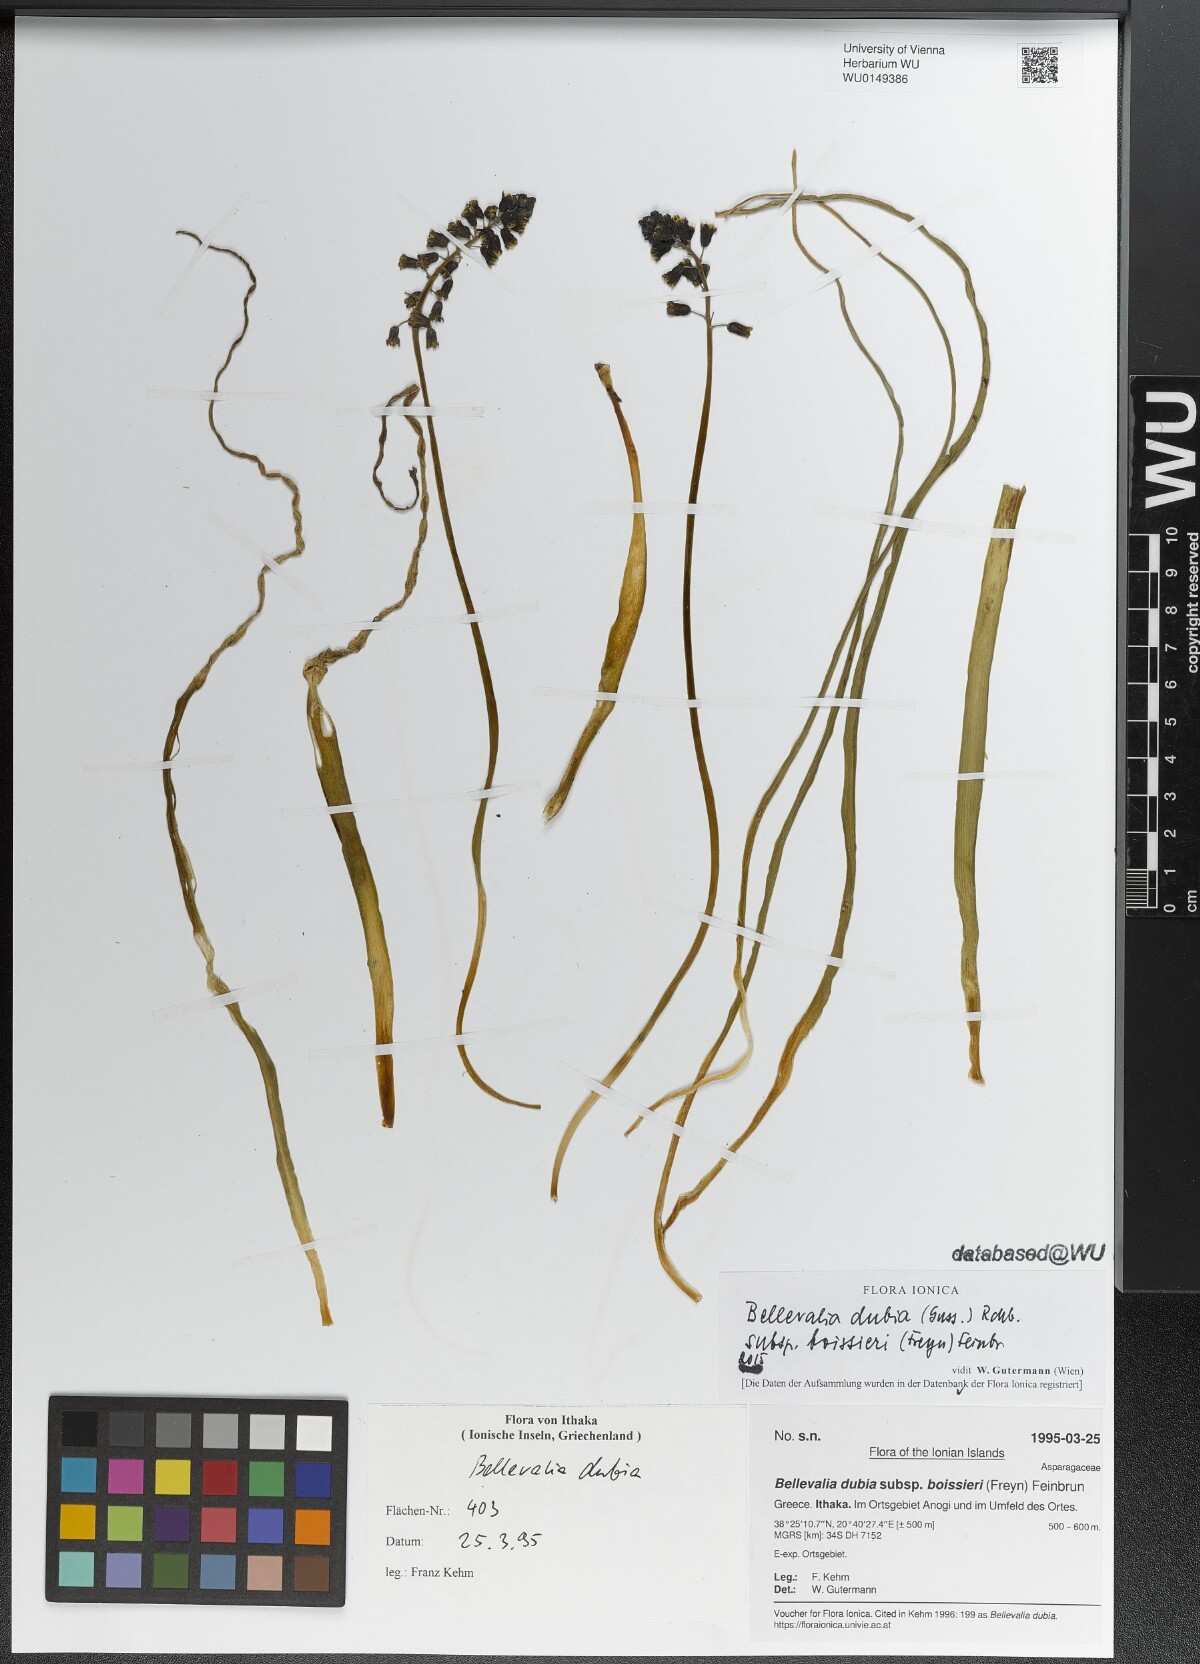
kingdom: Plantae
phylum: Tracheophyta
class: Liliopsida
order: Asparagales
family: Asparagaceae
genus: Bellevalia
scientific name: Bellevalia dubia
